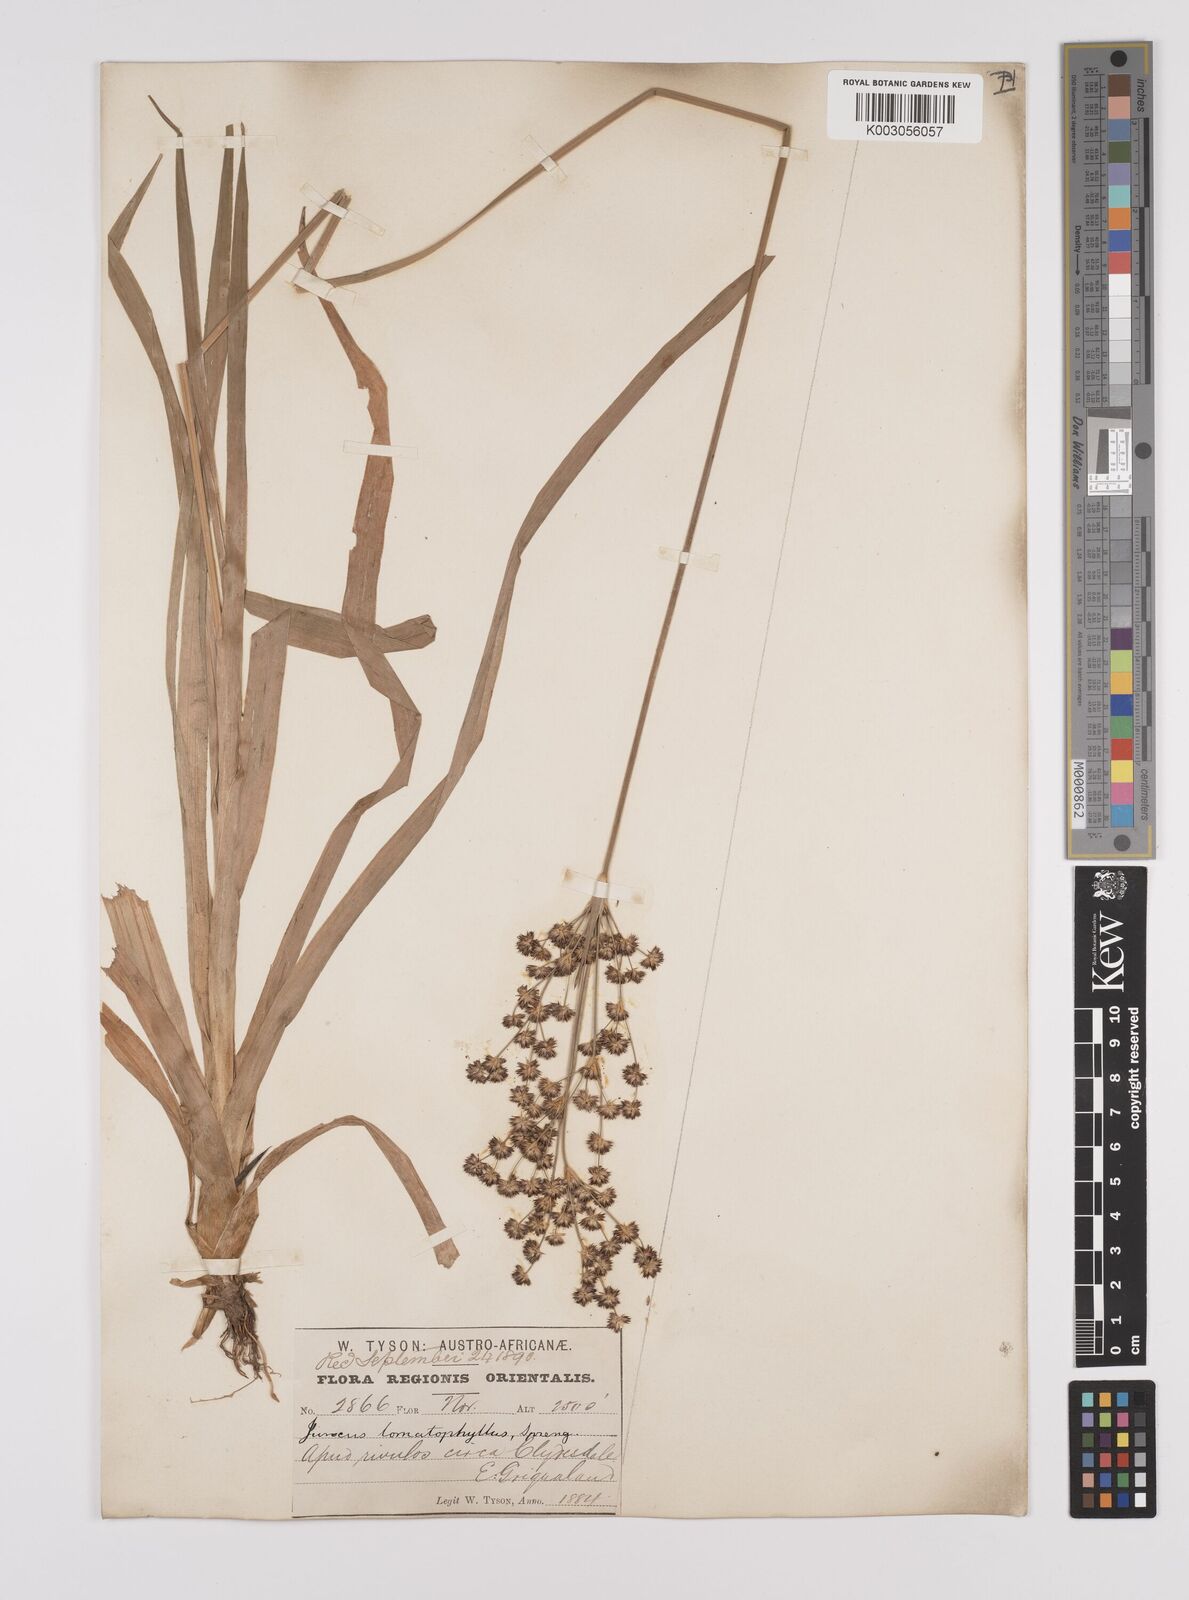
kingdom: Plantae
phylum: Tracheophyta
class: Liliopsida
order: Poales
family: Juncaceae
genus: Juncus
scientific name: Juncus lomatophyllus
